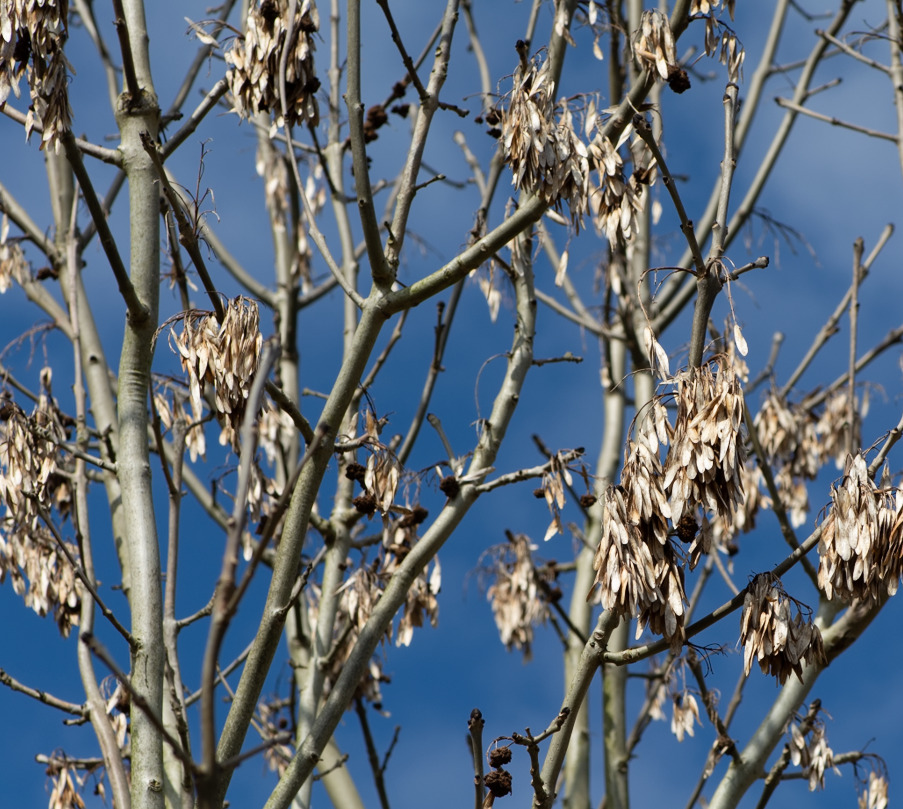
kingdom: Plantae
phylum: Tracheophyta
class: Magnoliopsida
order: Lamiales
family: Oleaceae
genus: Fraxinus
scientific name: Fraxinus excelsior
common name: Ask
